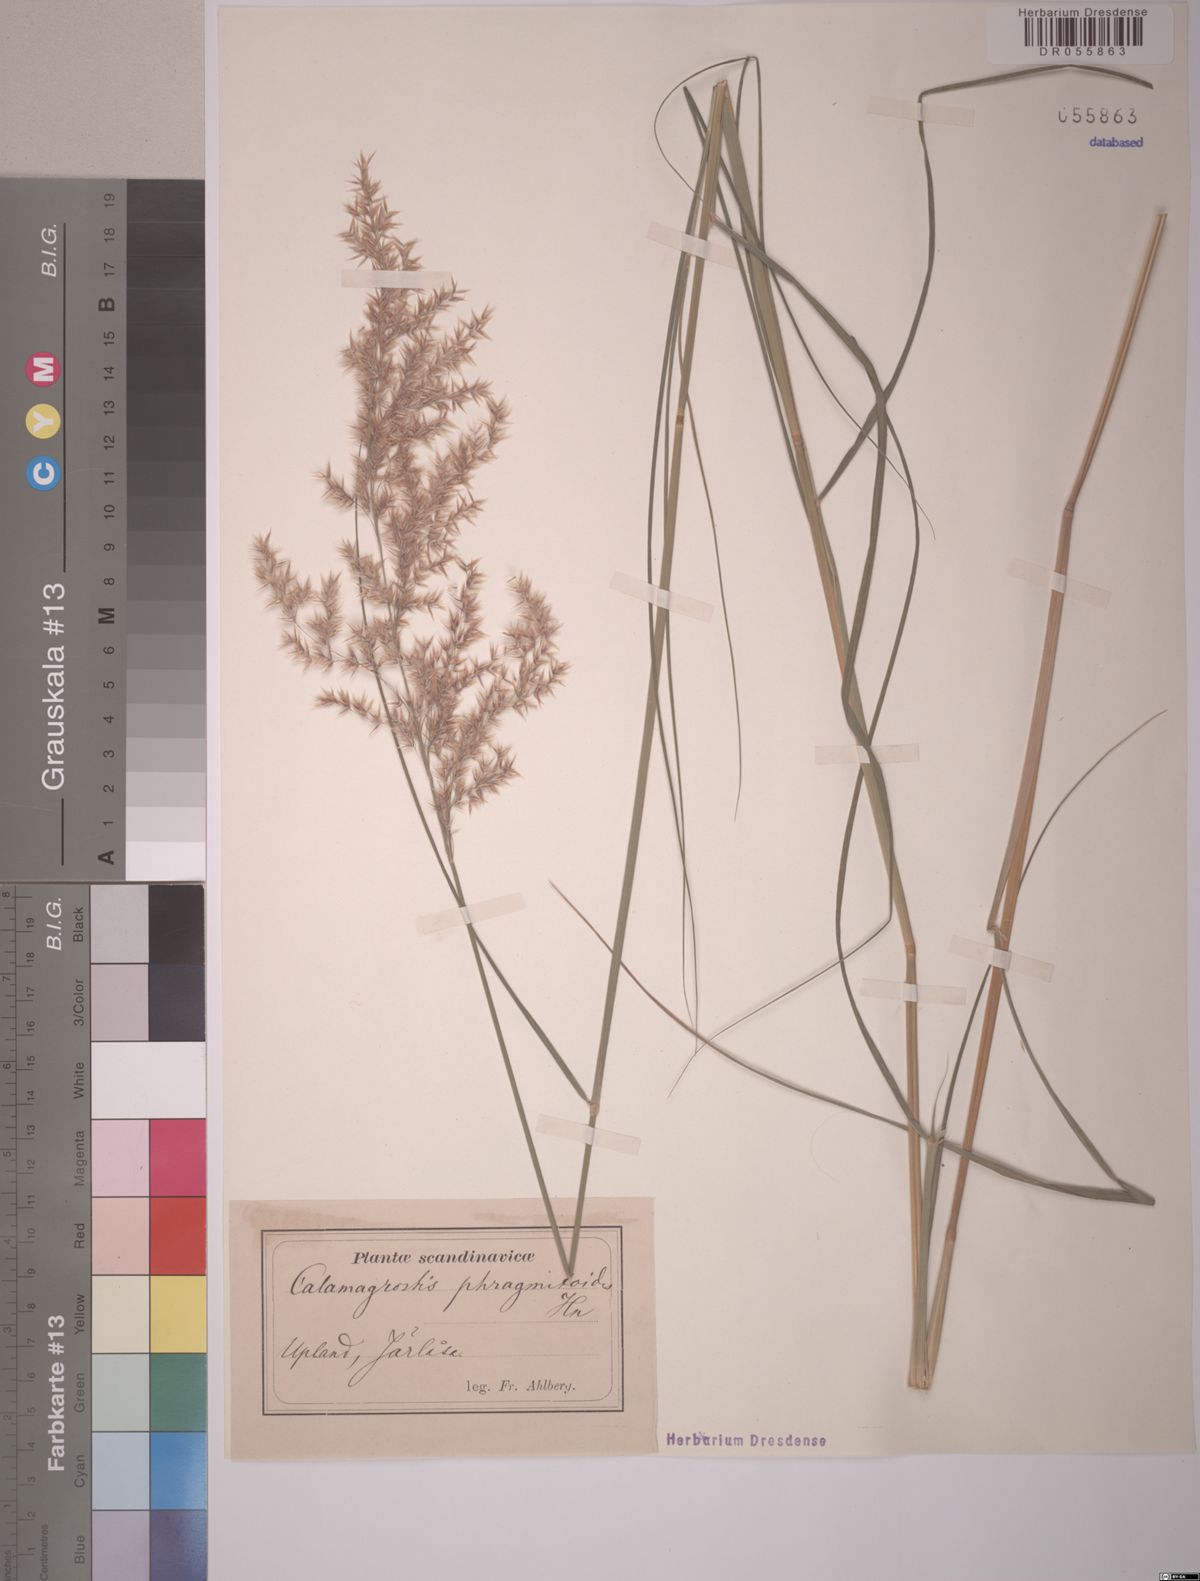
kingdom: Plantae
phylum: Tracheophyta
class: Liliopsida
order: Poales
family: Poaceae
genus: Calamagrostis
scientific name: Calamagrostis purpurea
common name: Scandinavian small-reed
